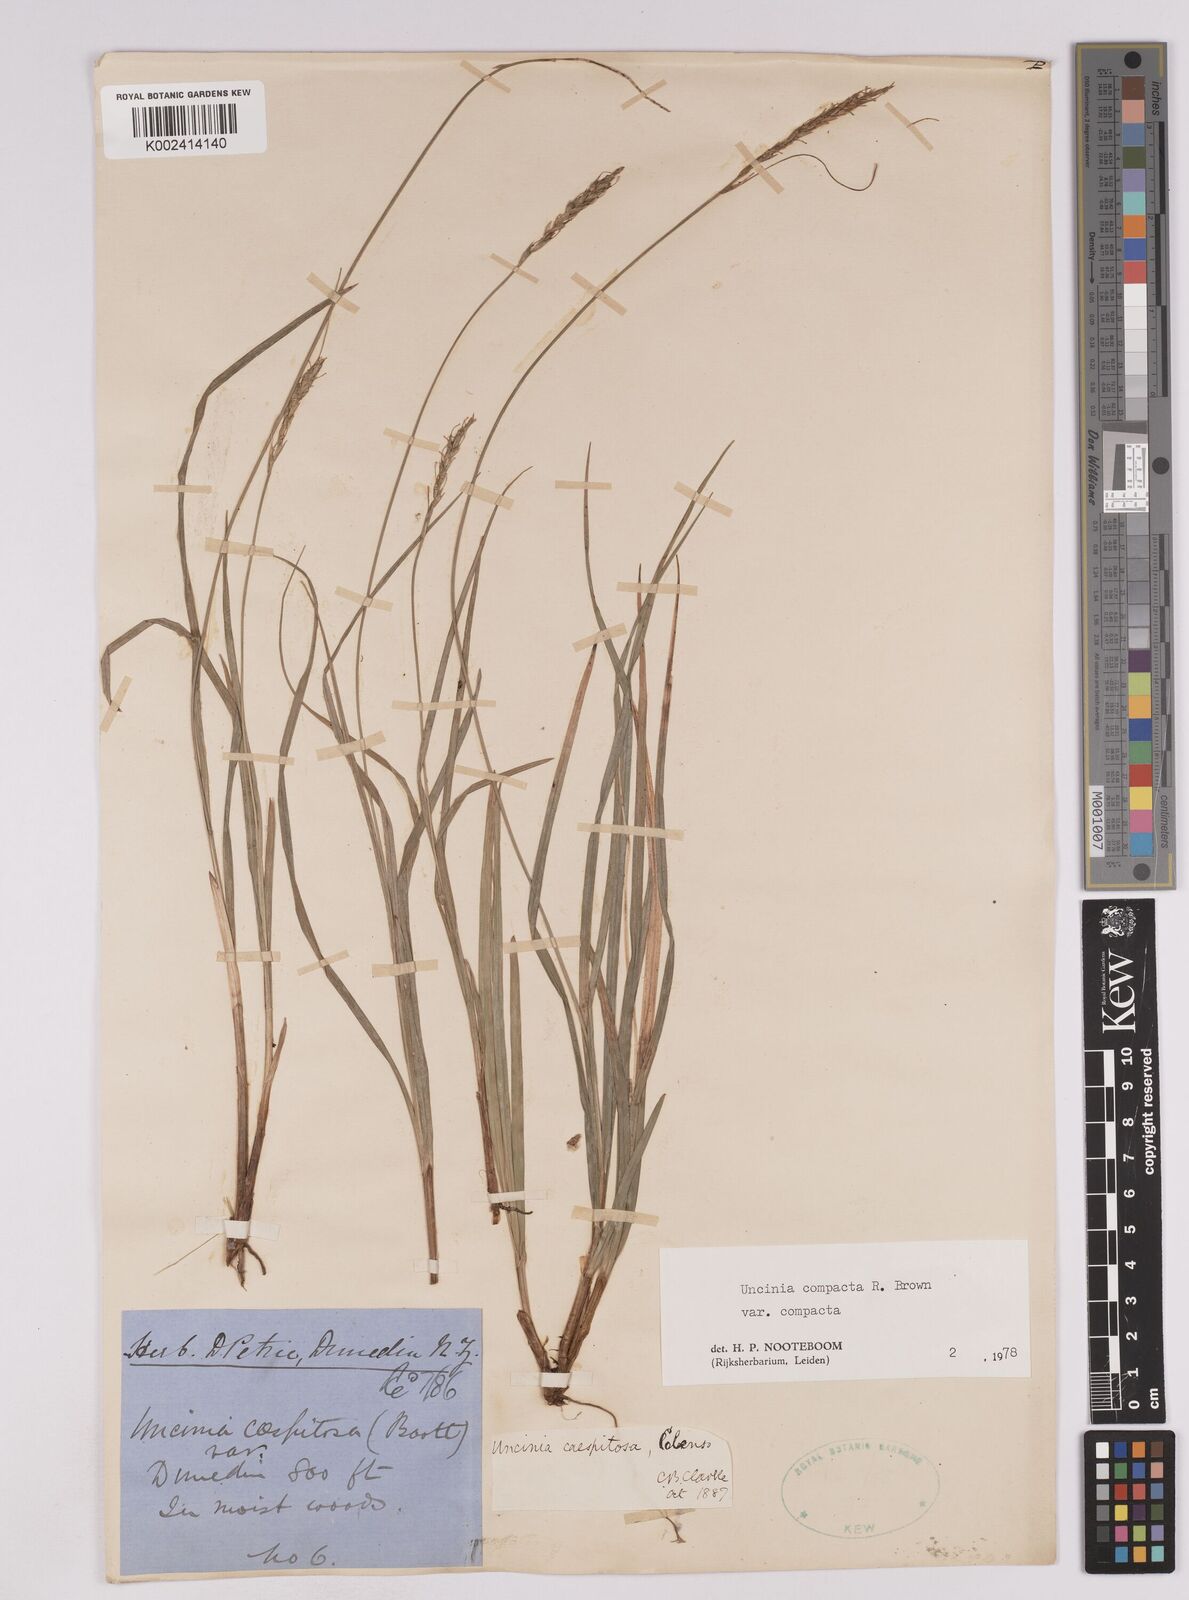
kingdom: Plantae
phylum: Tracheophyta
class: Liliopsida
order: Poales
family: Cyperaceae
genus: Carex
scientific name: Carex austrocompacta
